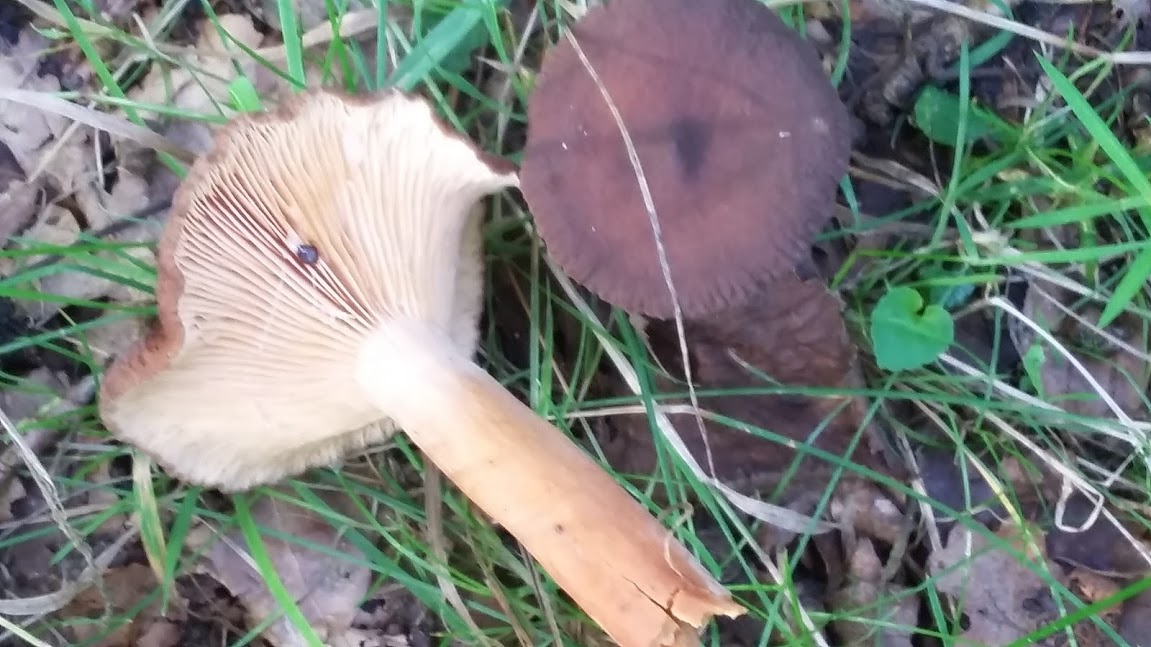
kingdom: Fungi
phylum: Basidiomycota
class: Agaricomycetes
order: Russulales
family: Russulaceae
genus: Lactarius
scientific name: Lactarius serifluus
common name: tæge-mælkehat
